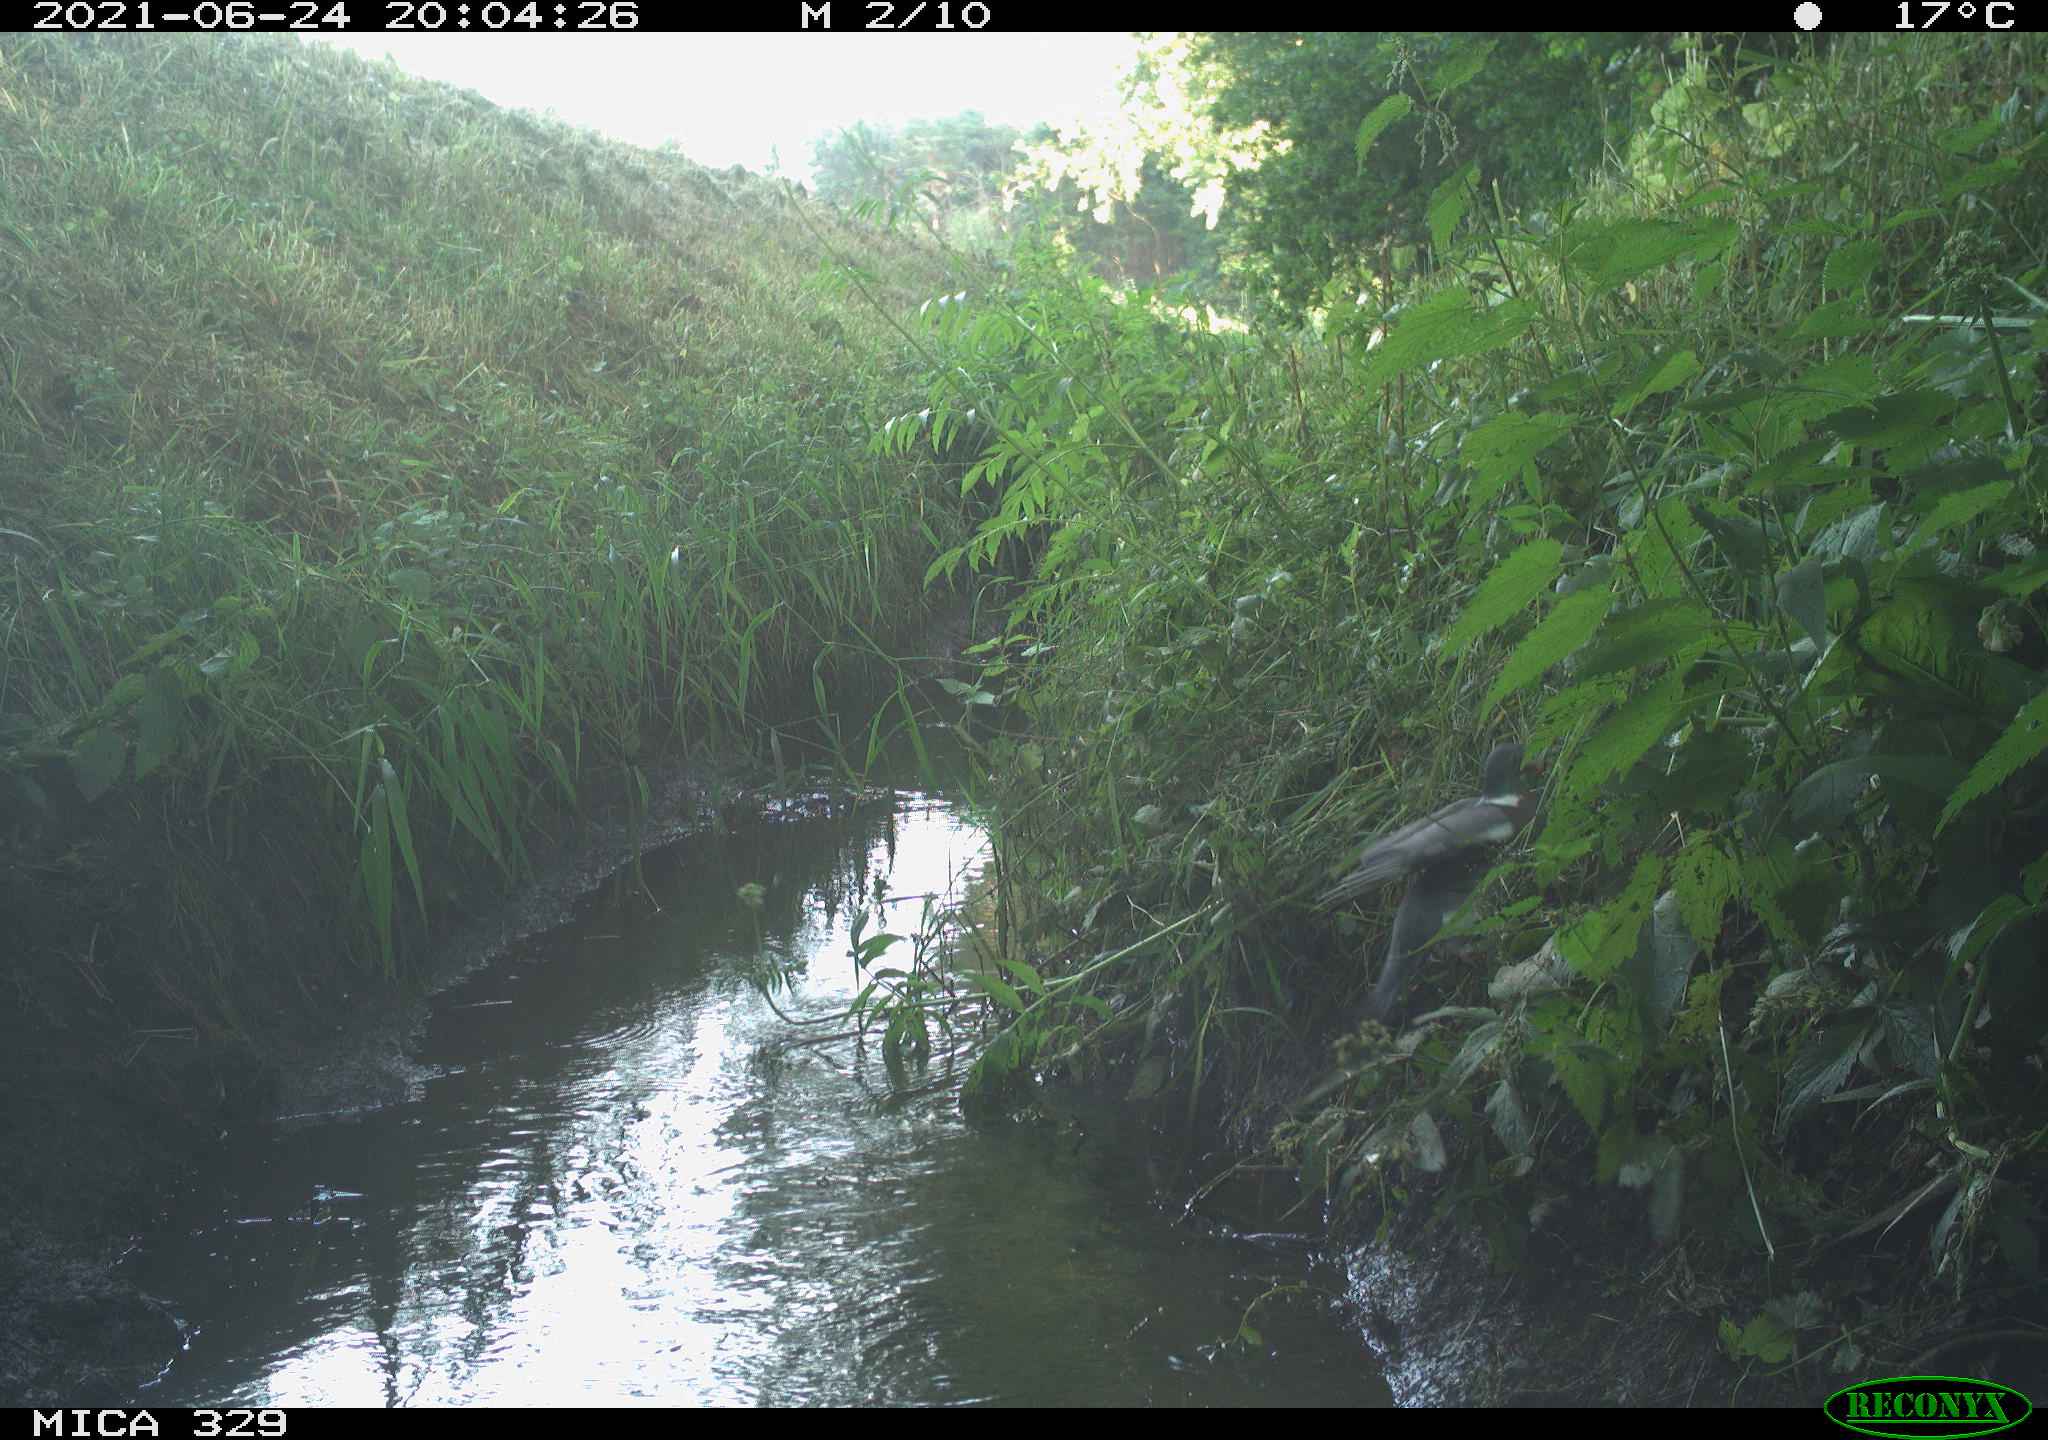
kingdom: Animalia
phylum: Chordata
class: Aves
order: Columbiformes
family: Columbidae
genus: Columba
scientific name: Columba palumbus
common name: Common wood pigeon
